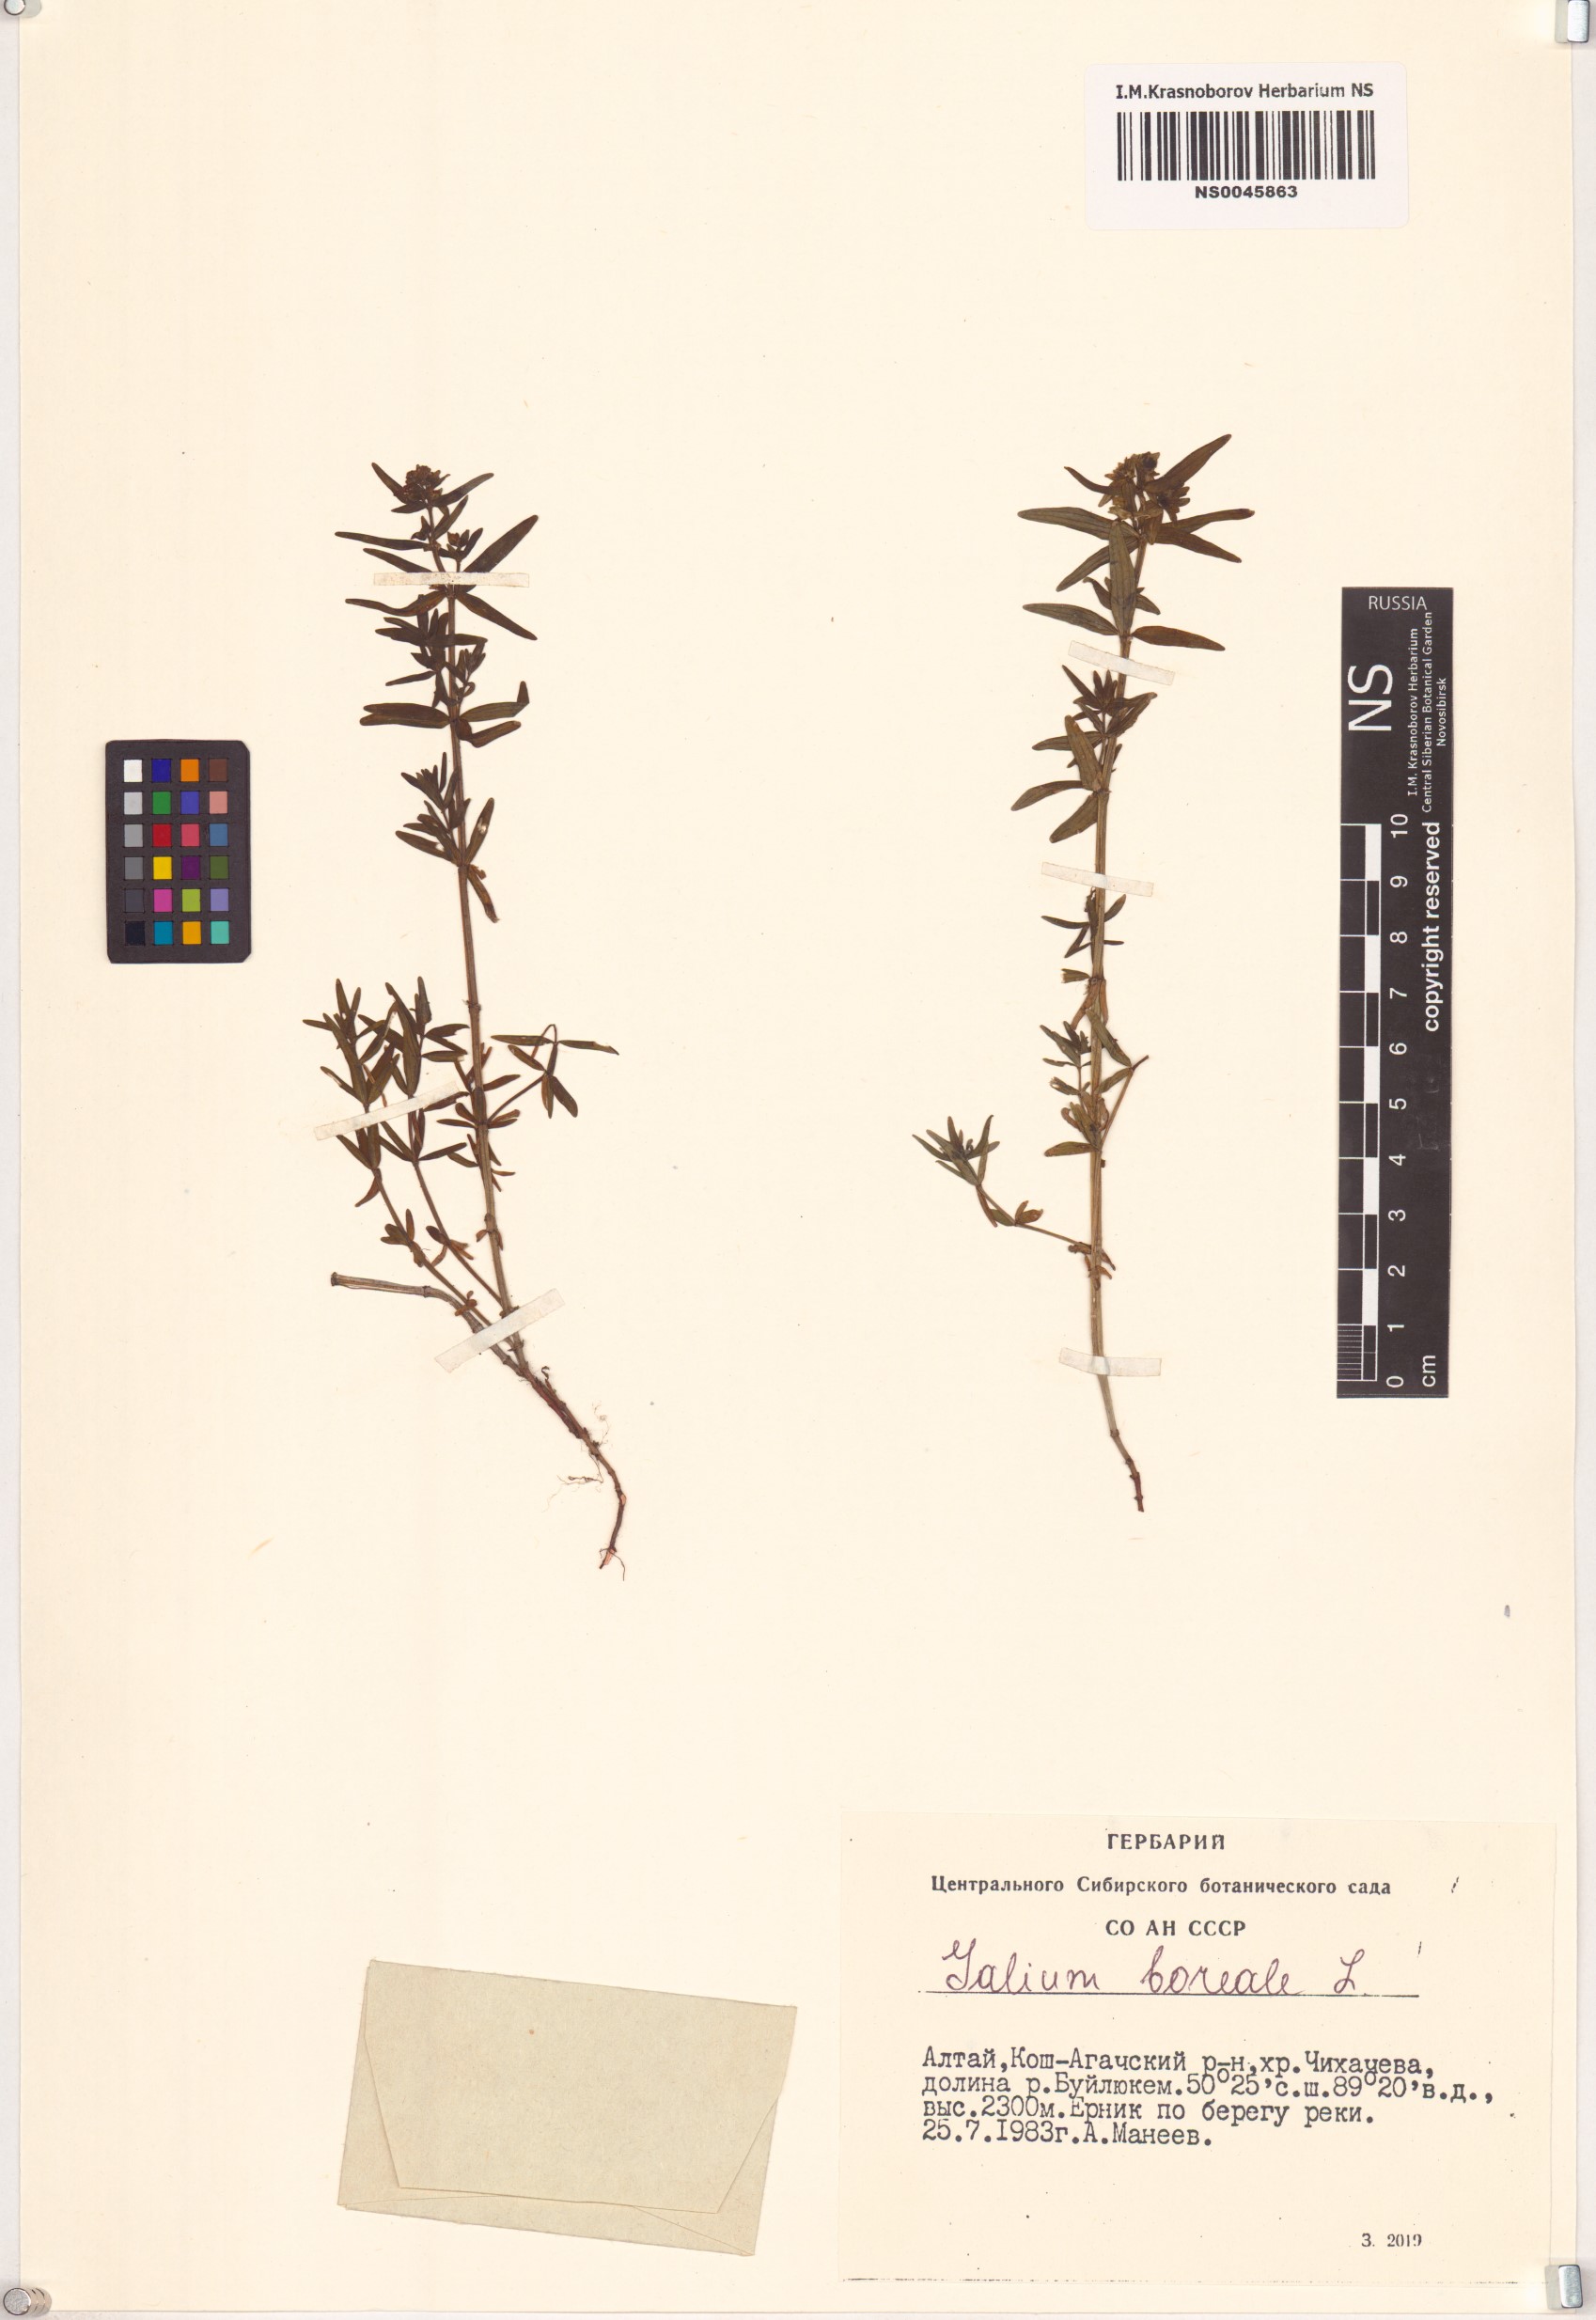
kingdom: Plantae
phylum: Tracheophyta
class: Magnoliopsida
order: Gentianales
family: Rubiaceae
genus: Galium
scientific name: Galium boreale
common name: Northern bedstraw
